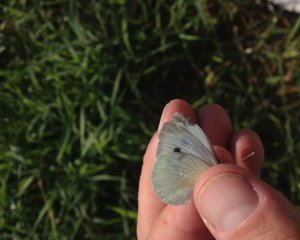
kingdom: Animalia
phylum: Arthropoda
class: Insecta
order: Lepidoptera
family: Pieridae
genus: Pieris
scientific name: Pieris rapae
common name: Cabbage White
